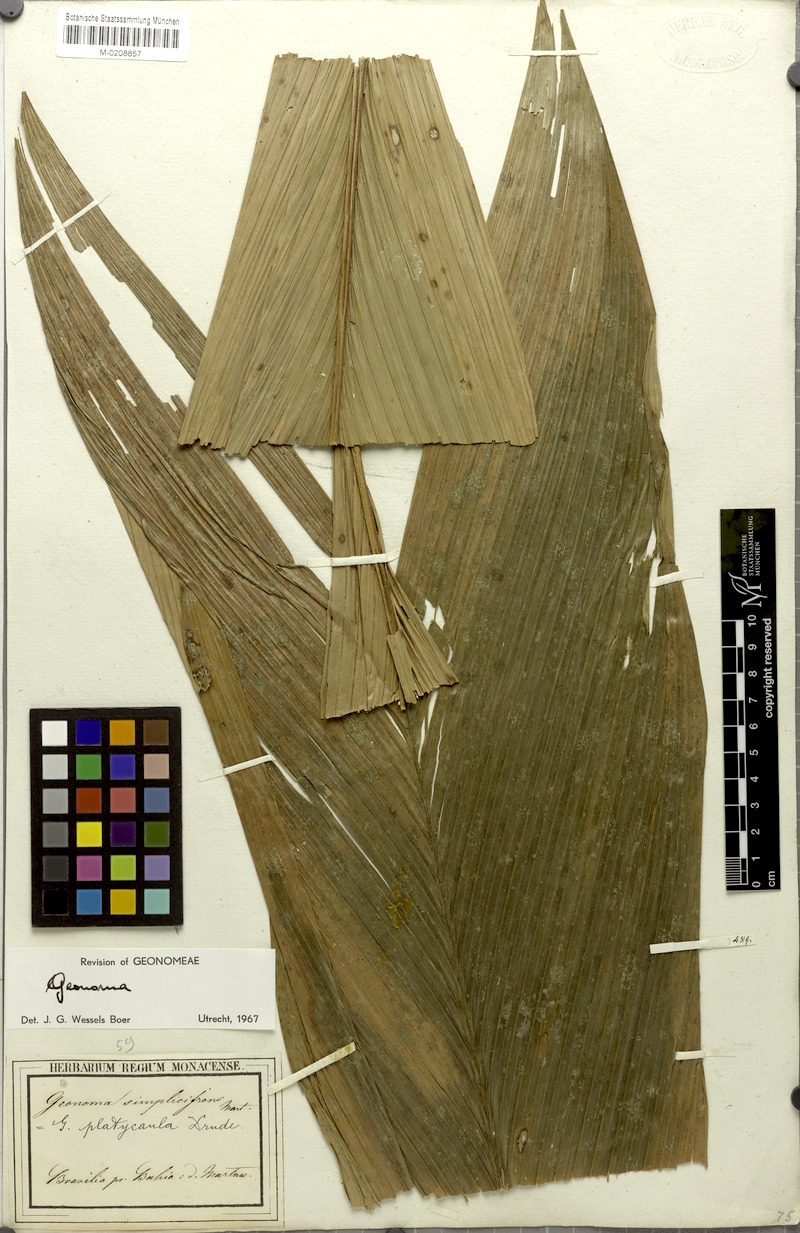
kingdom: Plantae
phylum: Tracheophyta
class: Liliopsida
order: Arecales
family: Arecaceae
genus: Geonoma
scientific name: Geonoma pohliana
